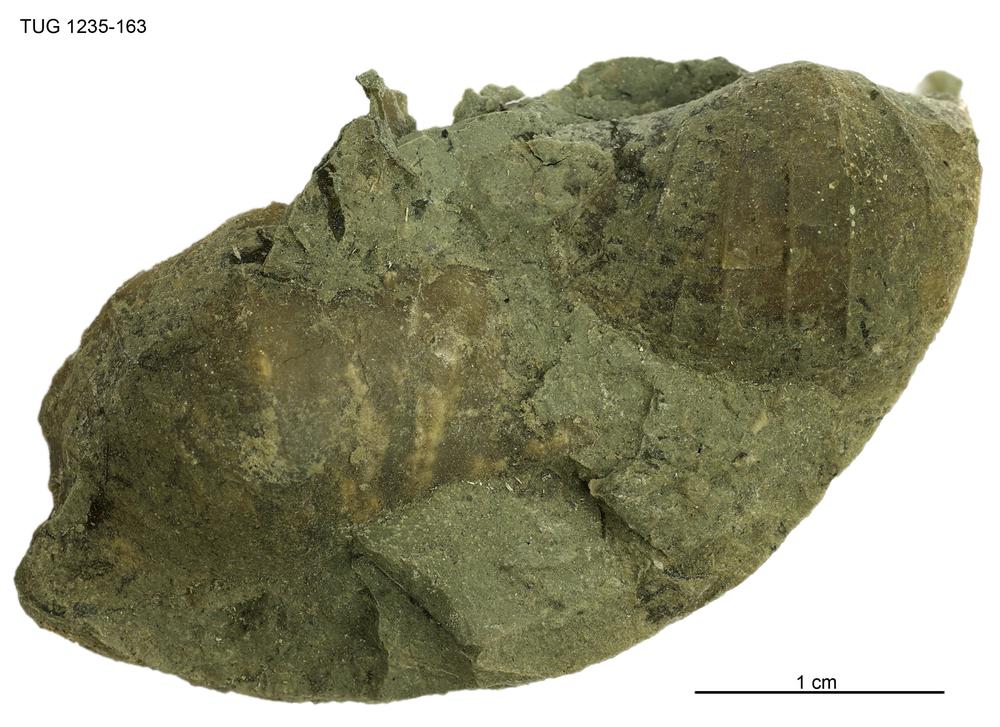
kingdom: Animalia
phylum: Brachiopoda
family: Oldhaminidae
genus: Eoplectodonta
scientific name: Eoplectodonta
